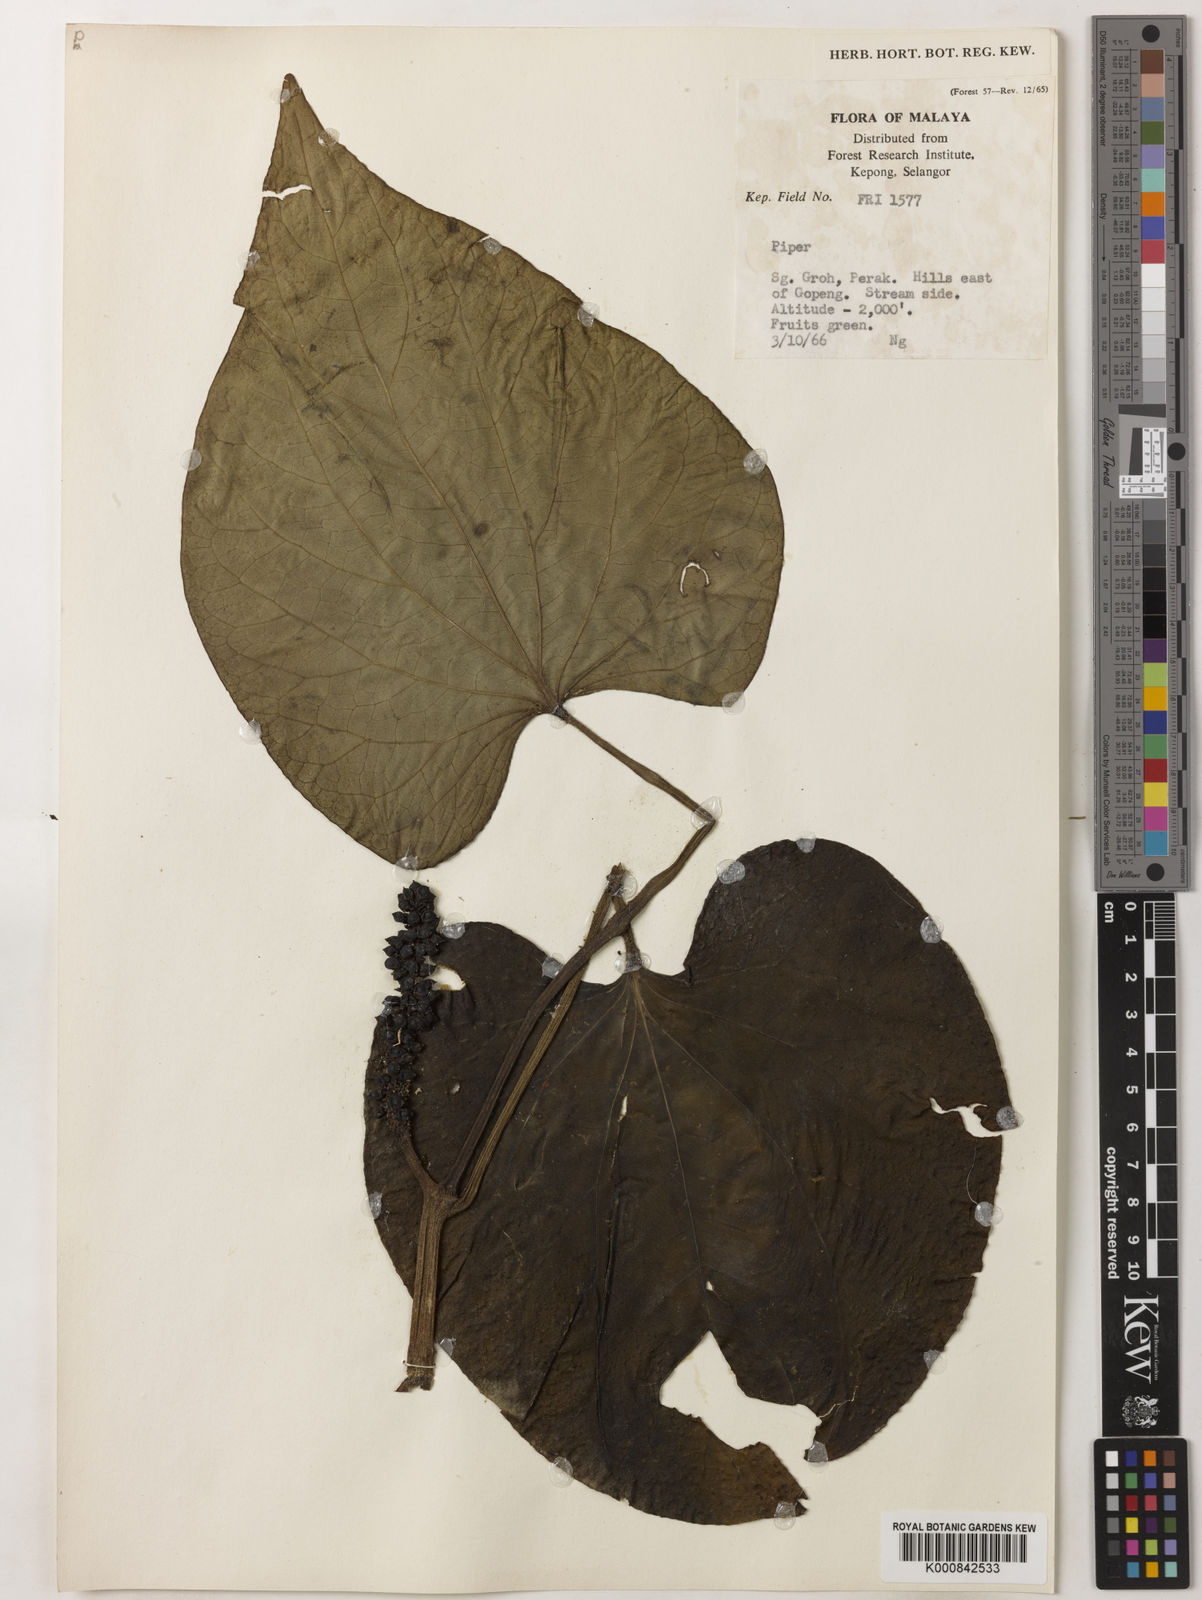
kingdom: Plantae
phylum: Tracheophyta
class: Magnoliopsida
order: Piperales
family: Piperaceae
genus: Piper
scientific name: Piper
